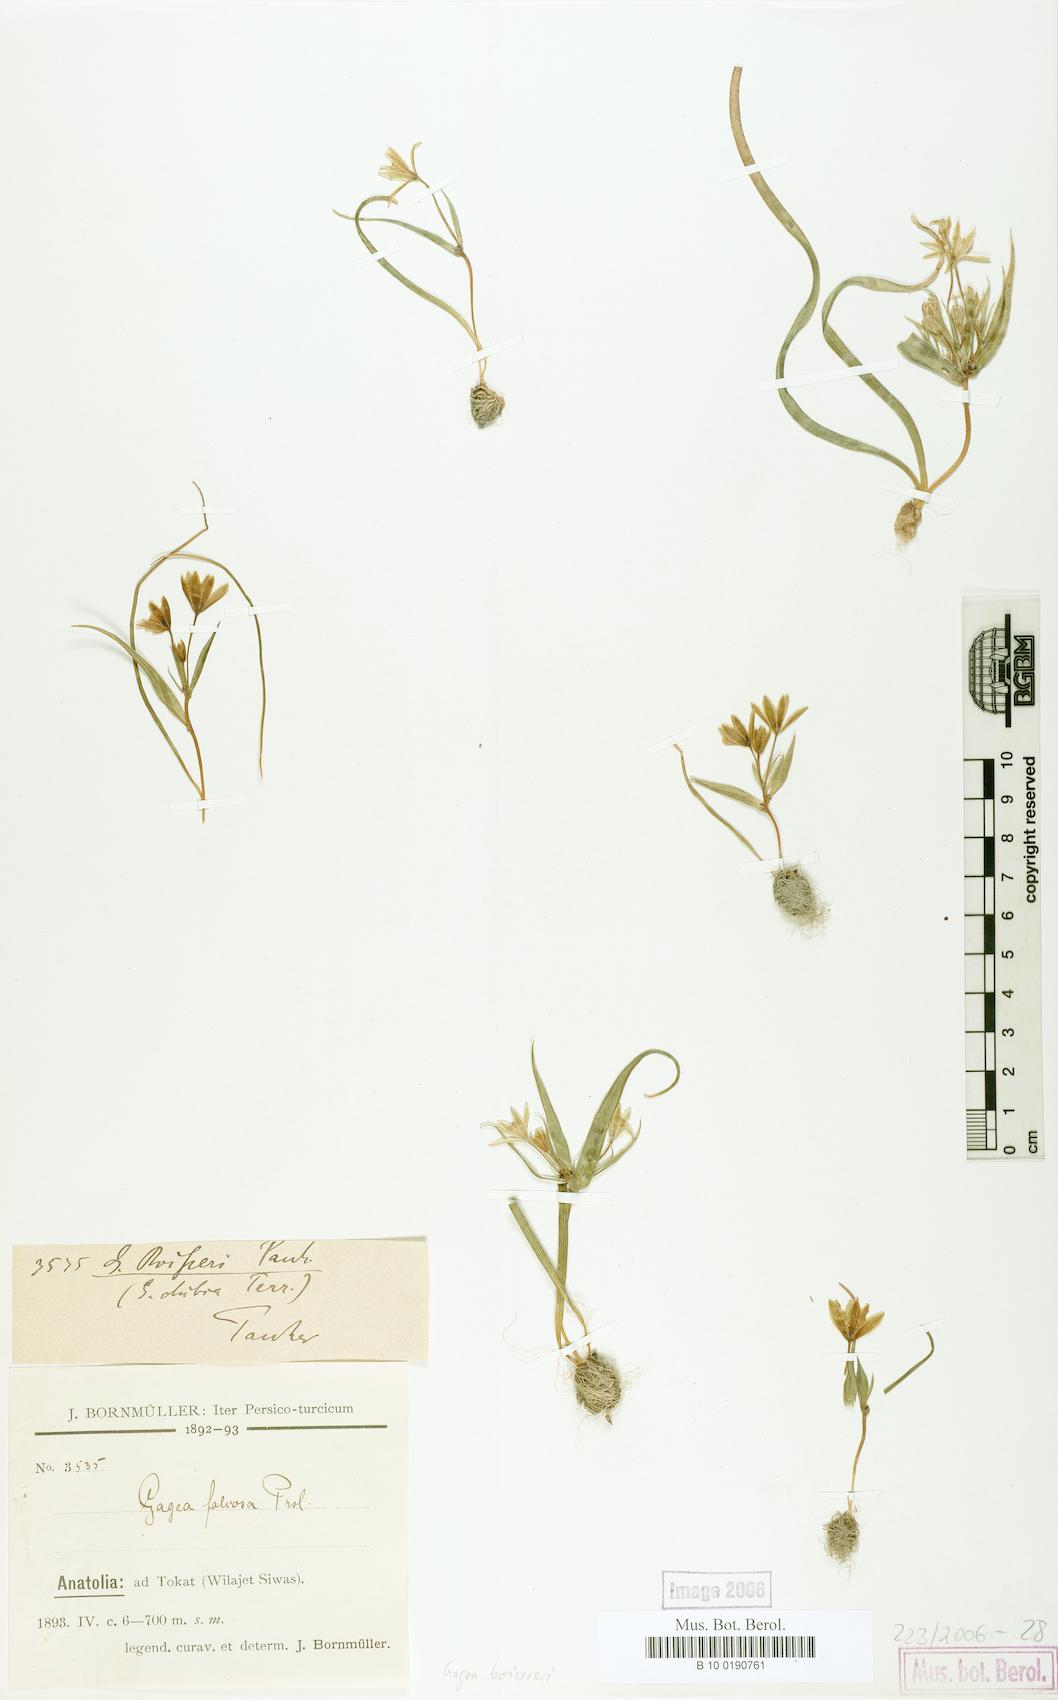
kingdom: Plantae
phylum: Tracheophyta
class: Liliopsida
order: Liliales
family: Liliaceae
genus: Gagea
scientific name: Gagea villosa
